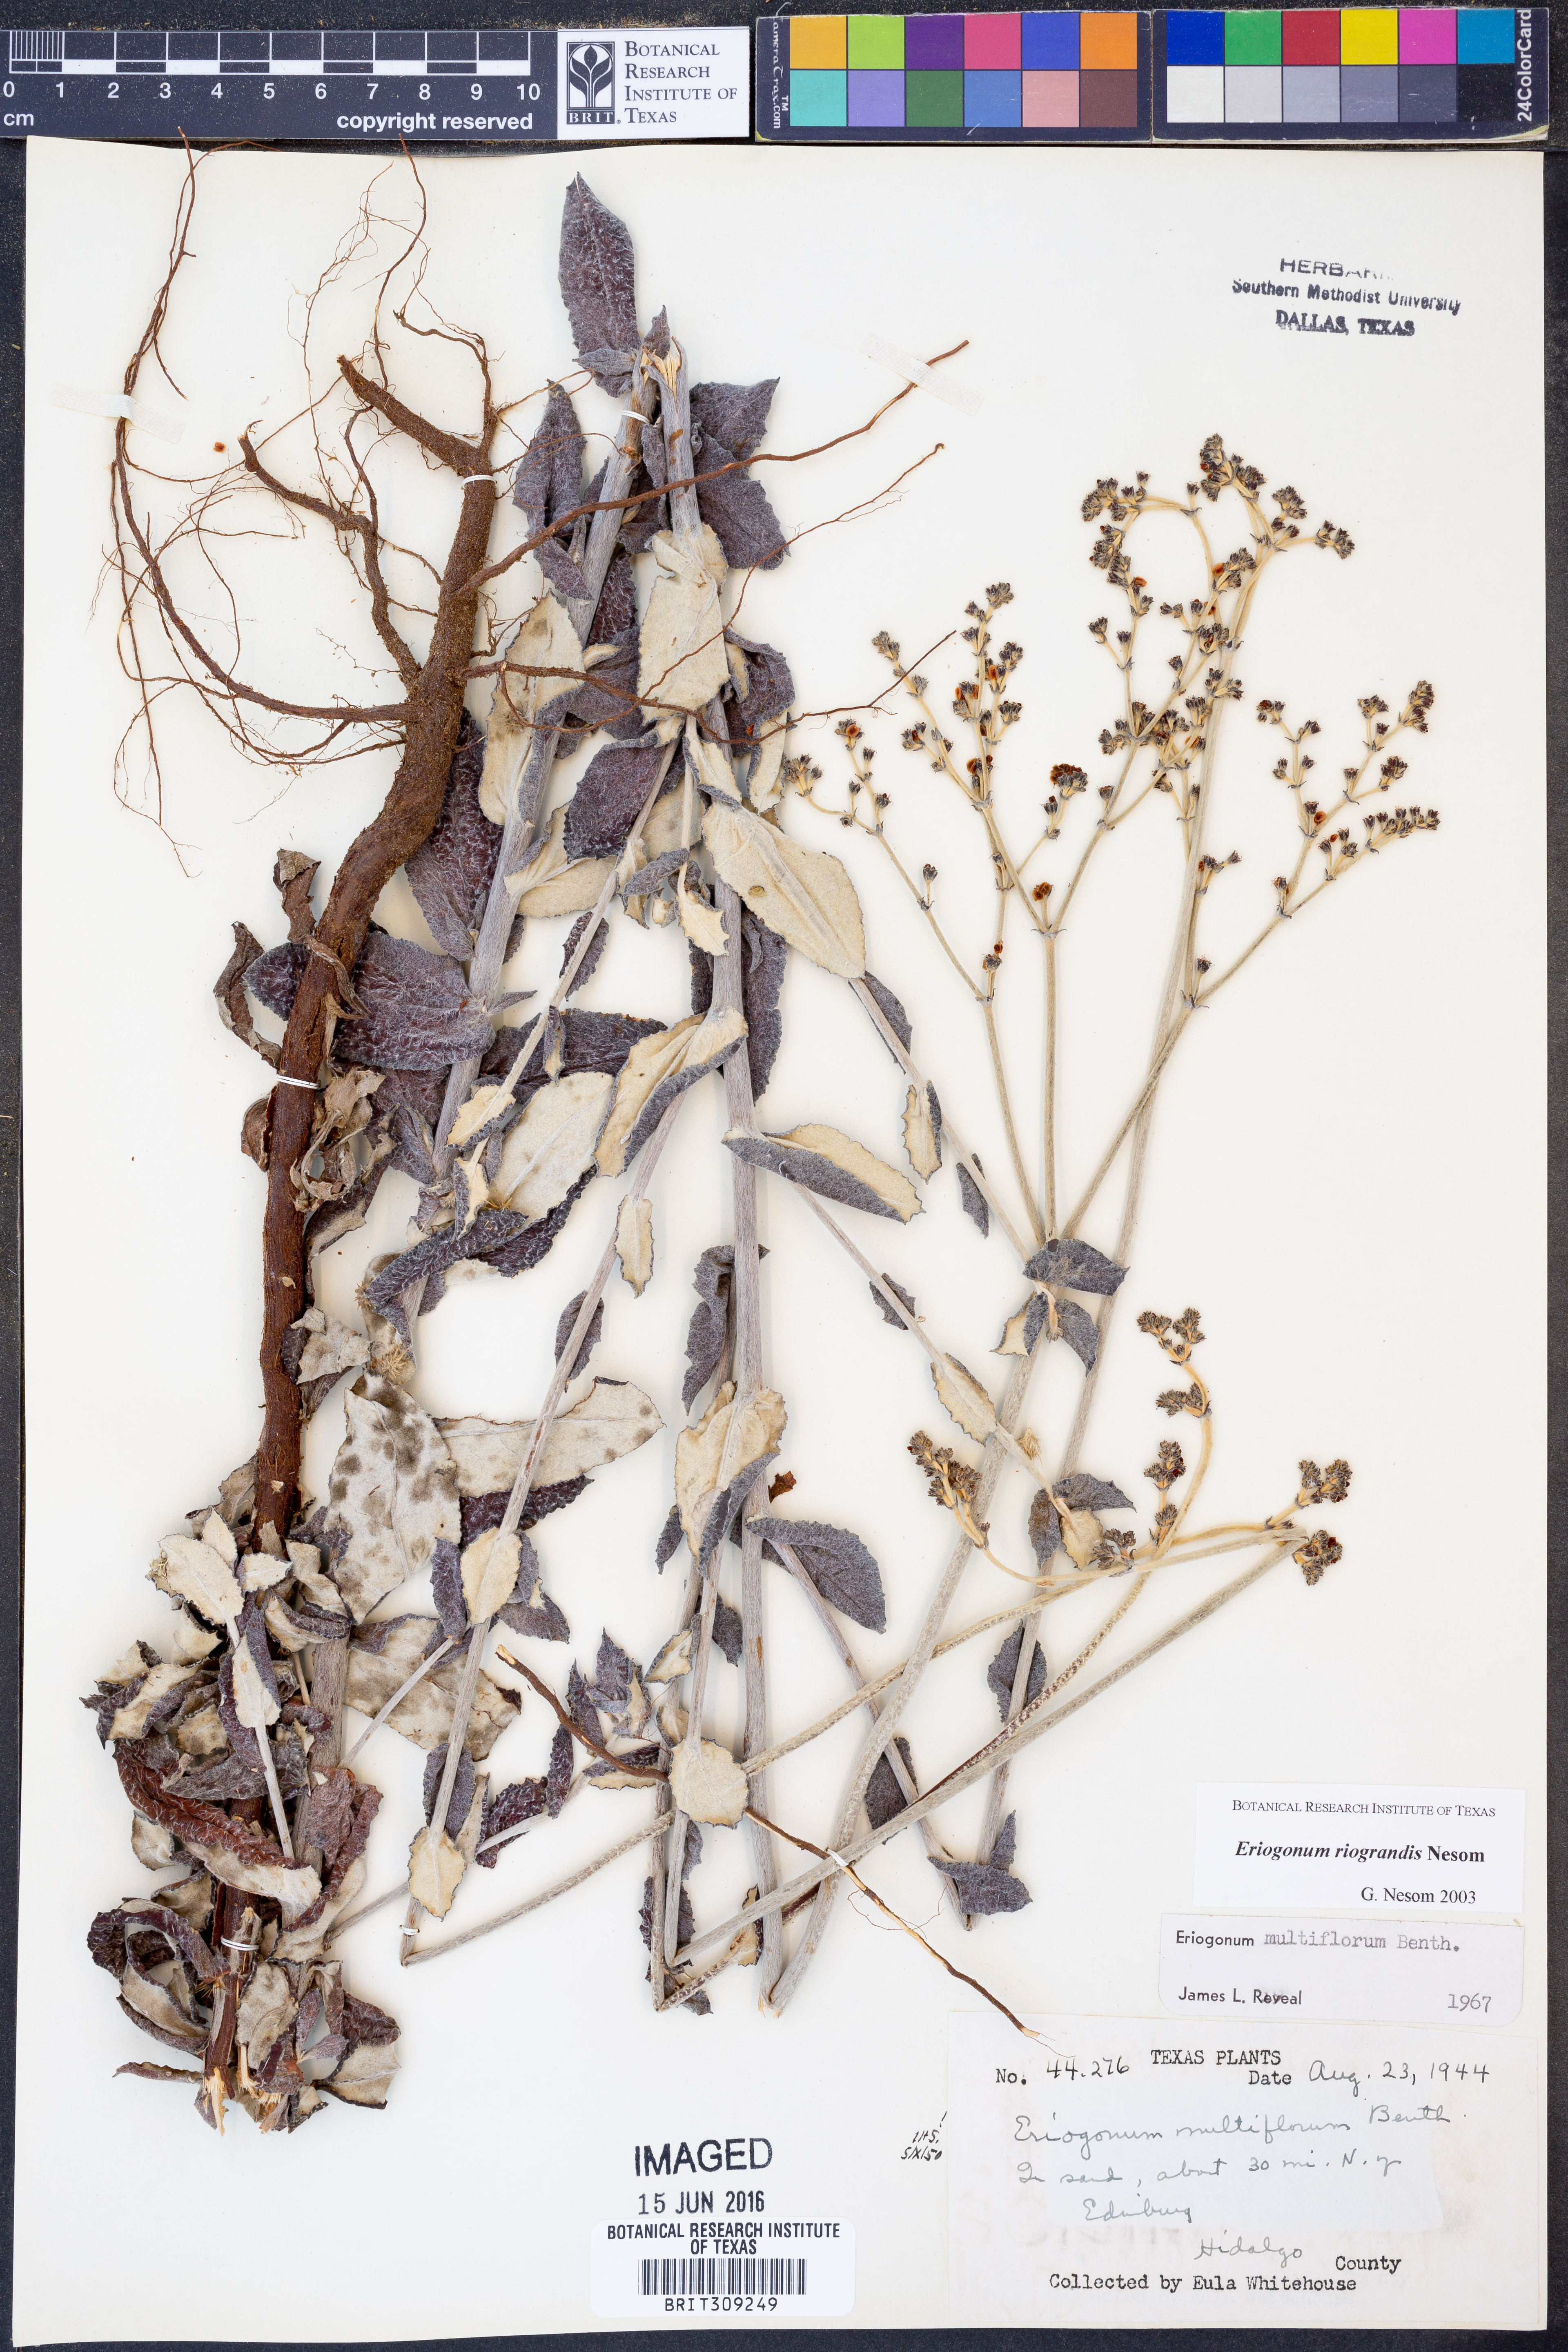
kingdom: Plantae
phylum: Tracheophyta
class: Magnoliopsida
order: Caryophyllales
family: Polygonaceae
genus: Eriogonum
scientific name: Eriogonum multiflorum
